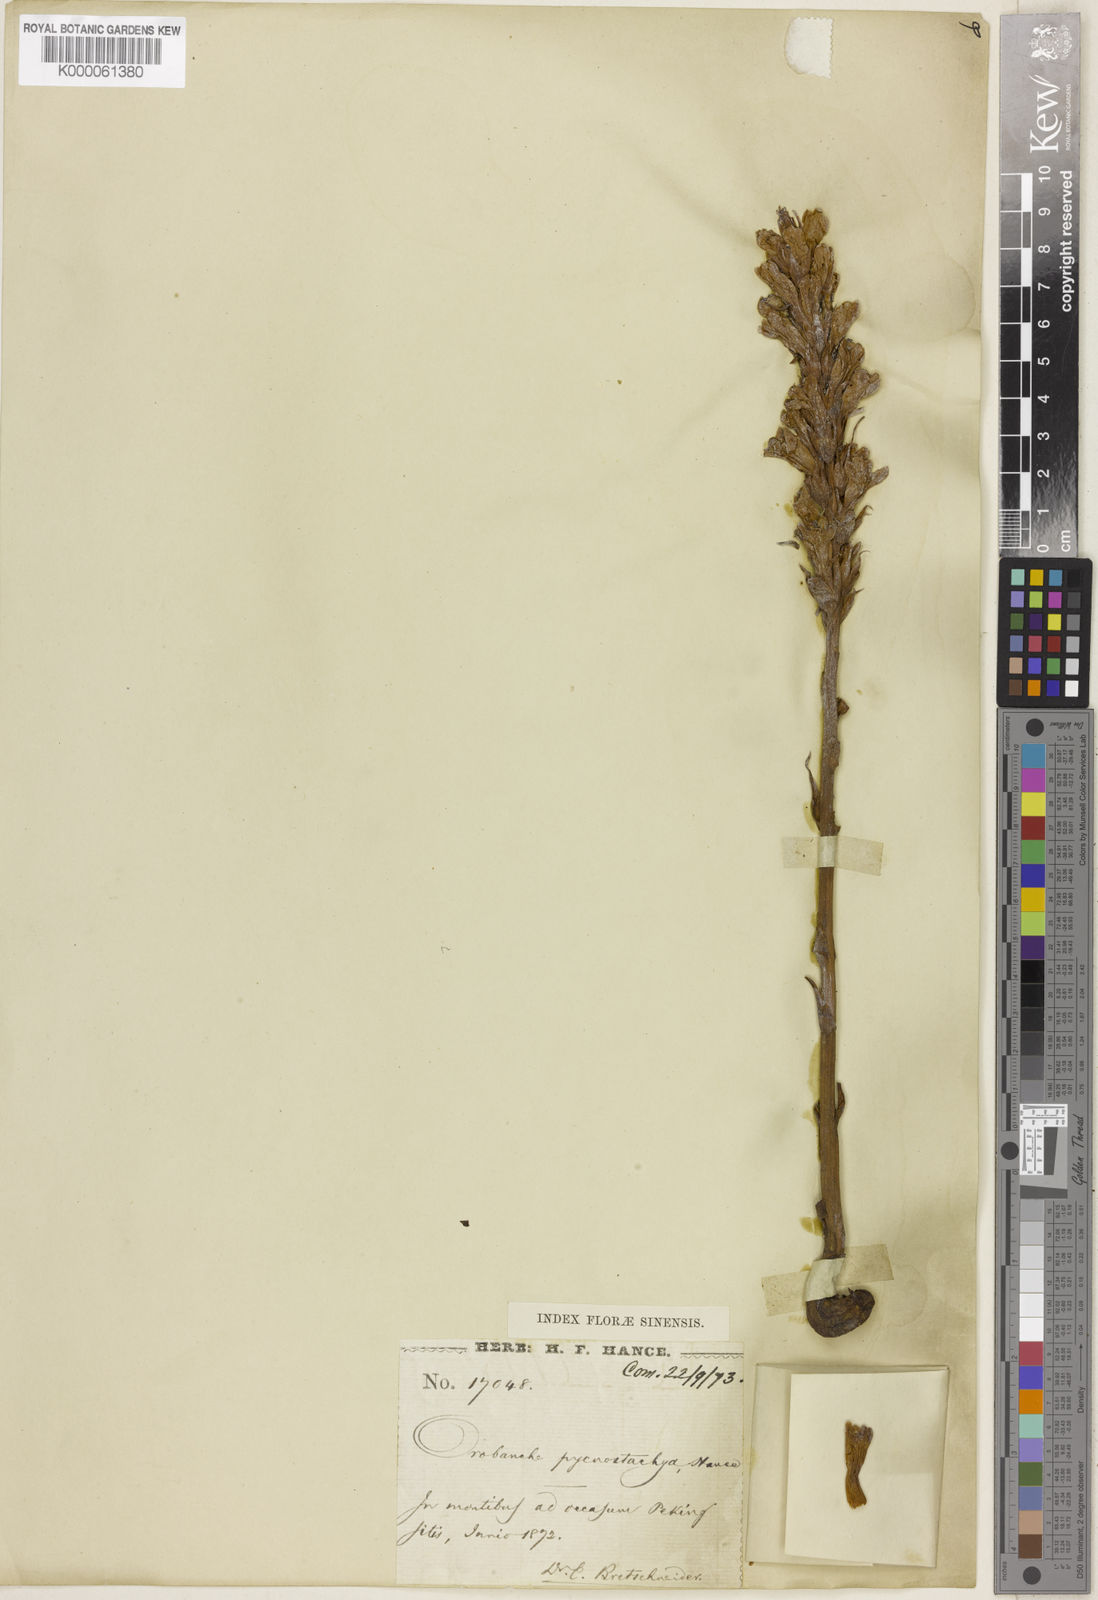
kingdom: Plantae
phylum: Tracheophyta
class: Magnoliopsida
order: Lamiales
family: Orobanchaceae
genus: Orobanche
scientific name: Orobanche pycnostachya
